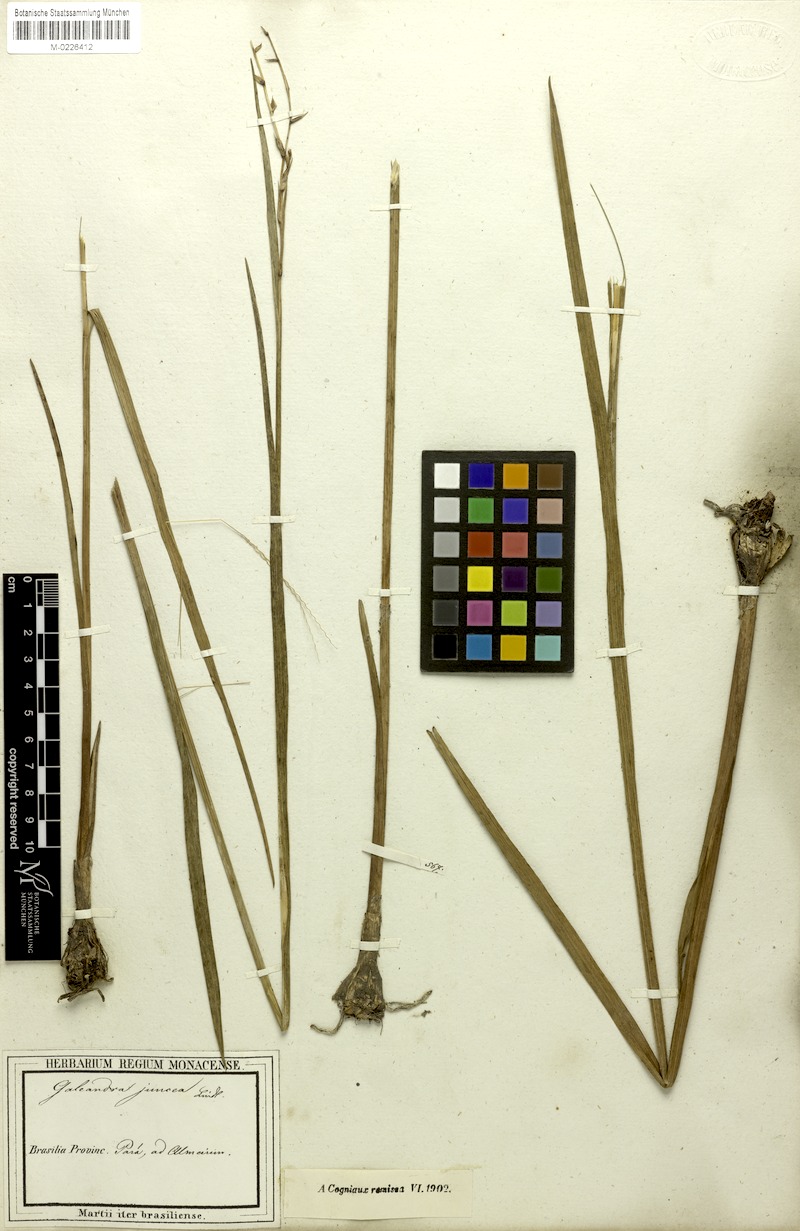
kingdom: Plantae
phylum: Tracheophyta
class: Liliopsida
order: Asparagales
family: Orchidaceae
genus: Galeandra
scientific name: Galeandra styllomisantha
